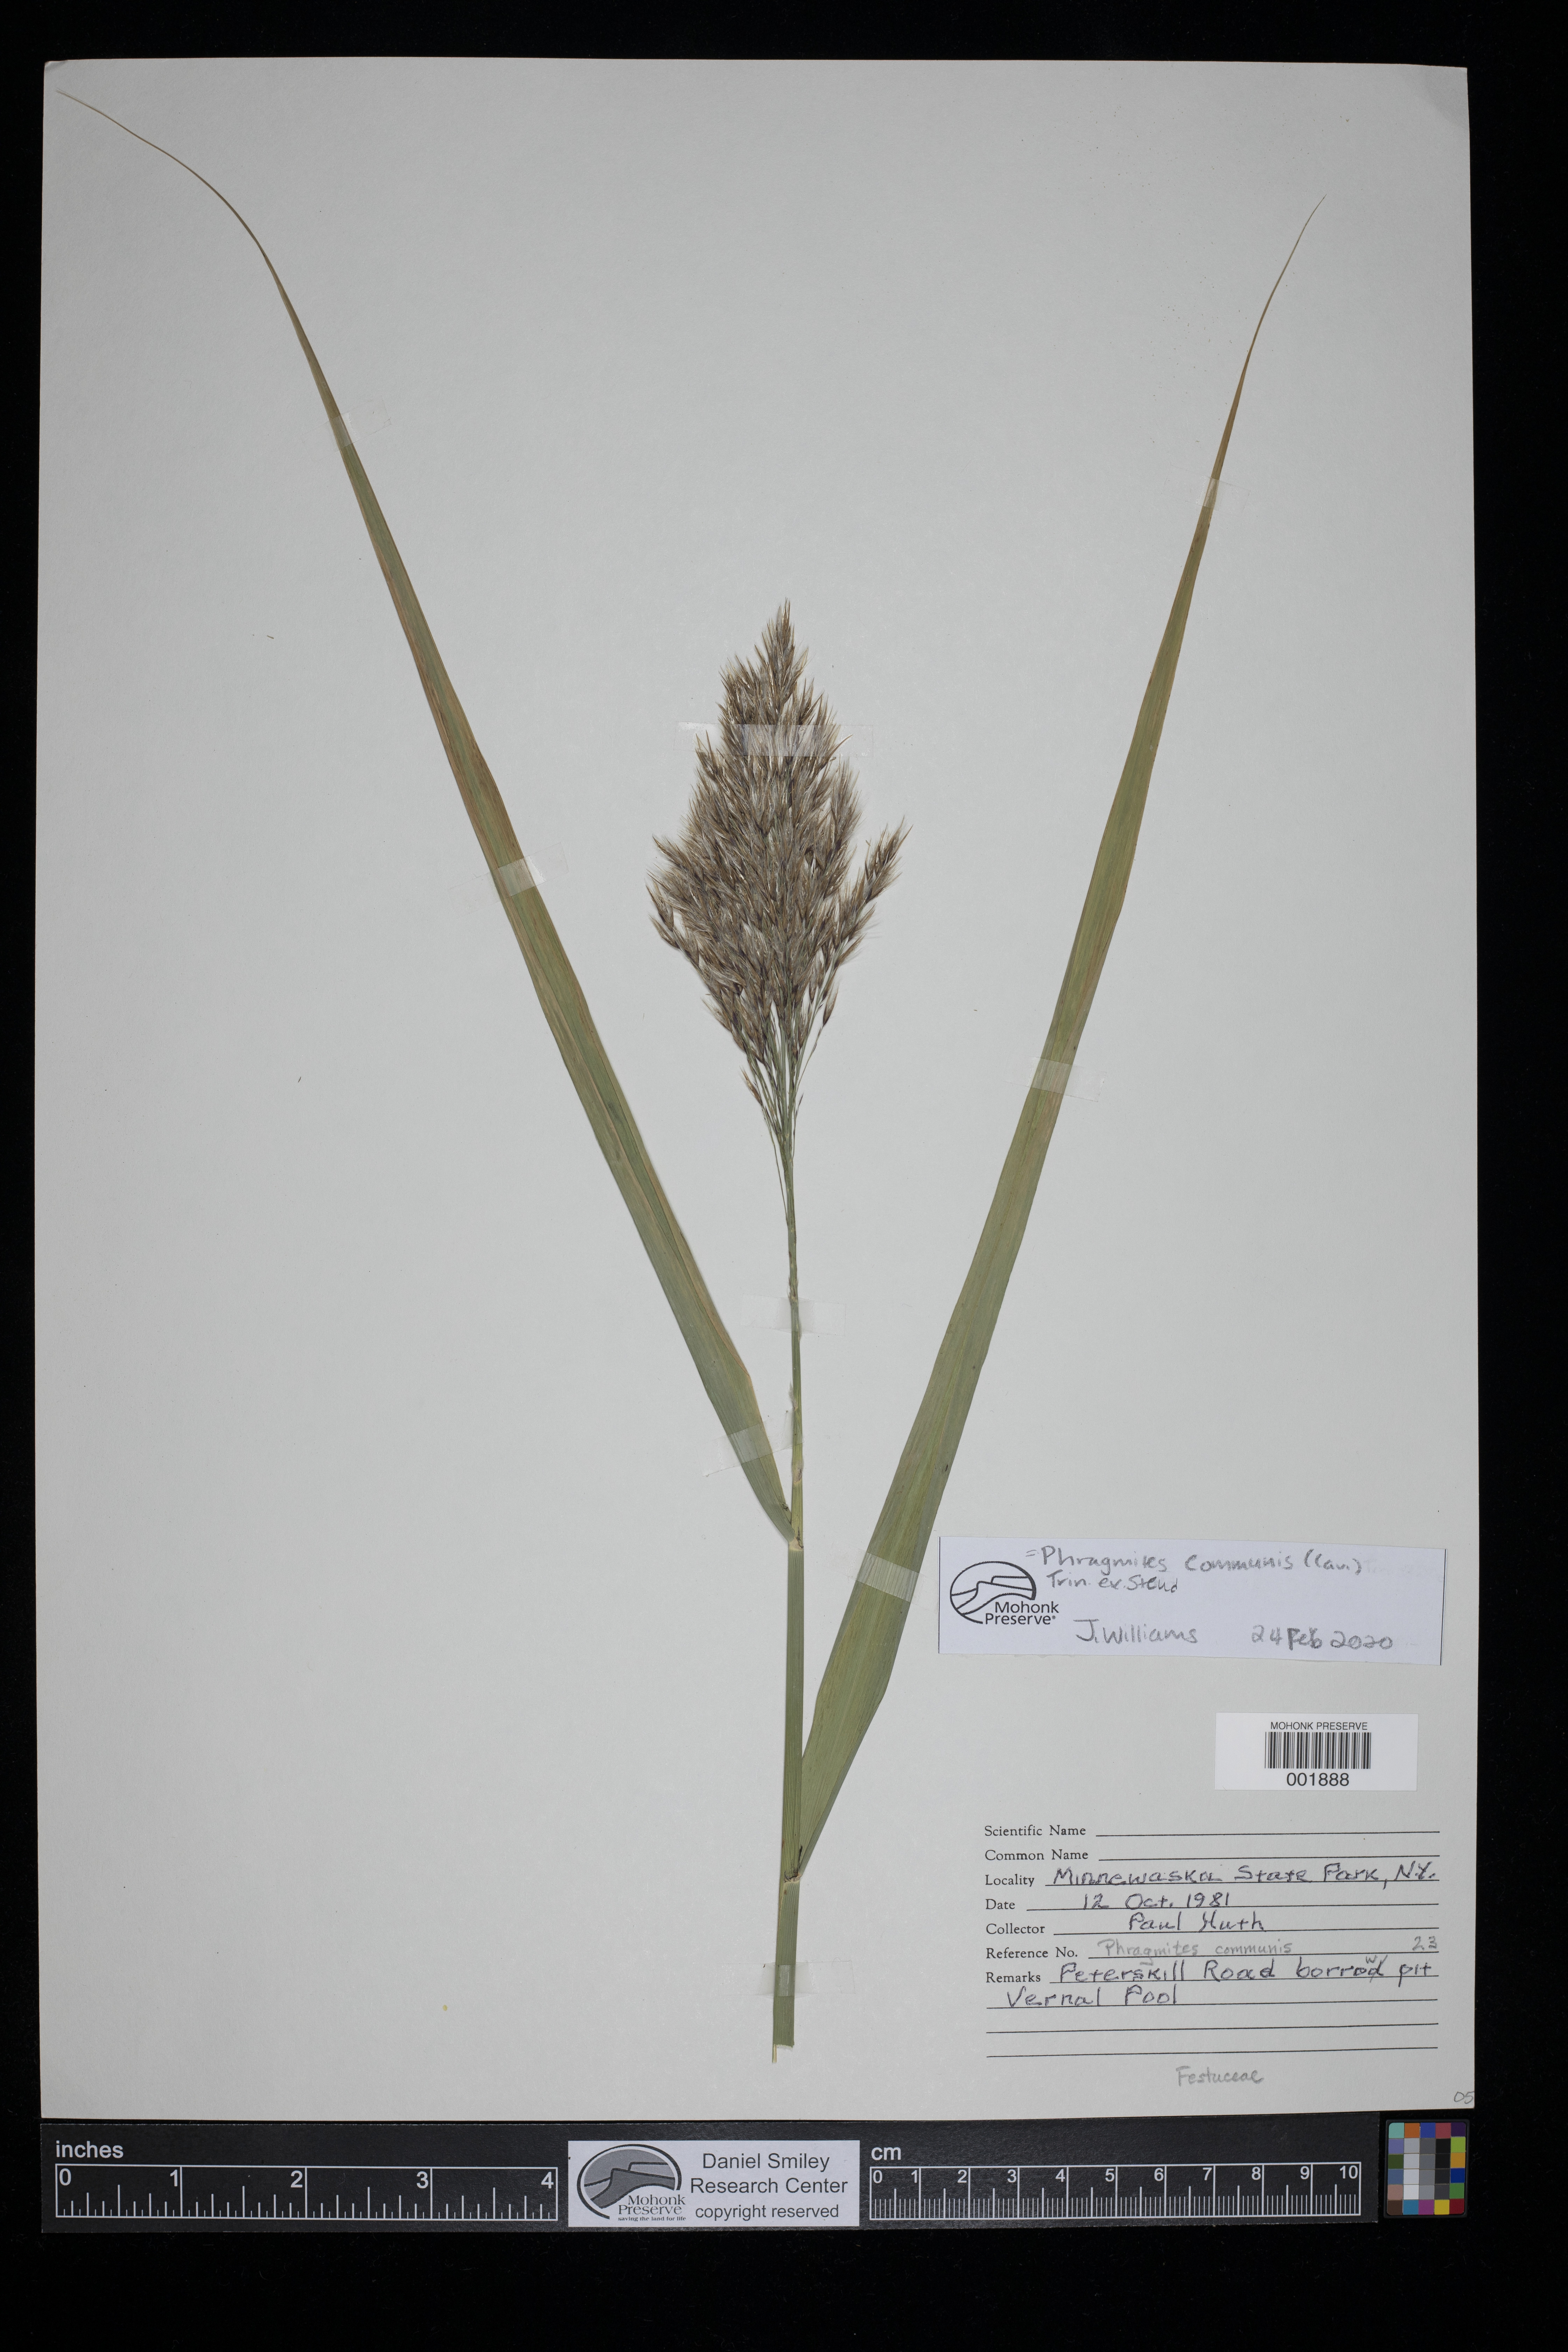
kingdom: Plantae
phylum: Tracheophyta
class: Liliopsida
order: Poales
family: Poaceae
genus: Phragmites
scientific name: Phragmites australis
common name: Common reed
